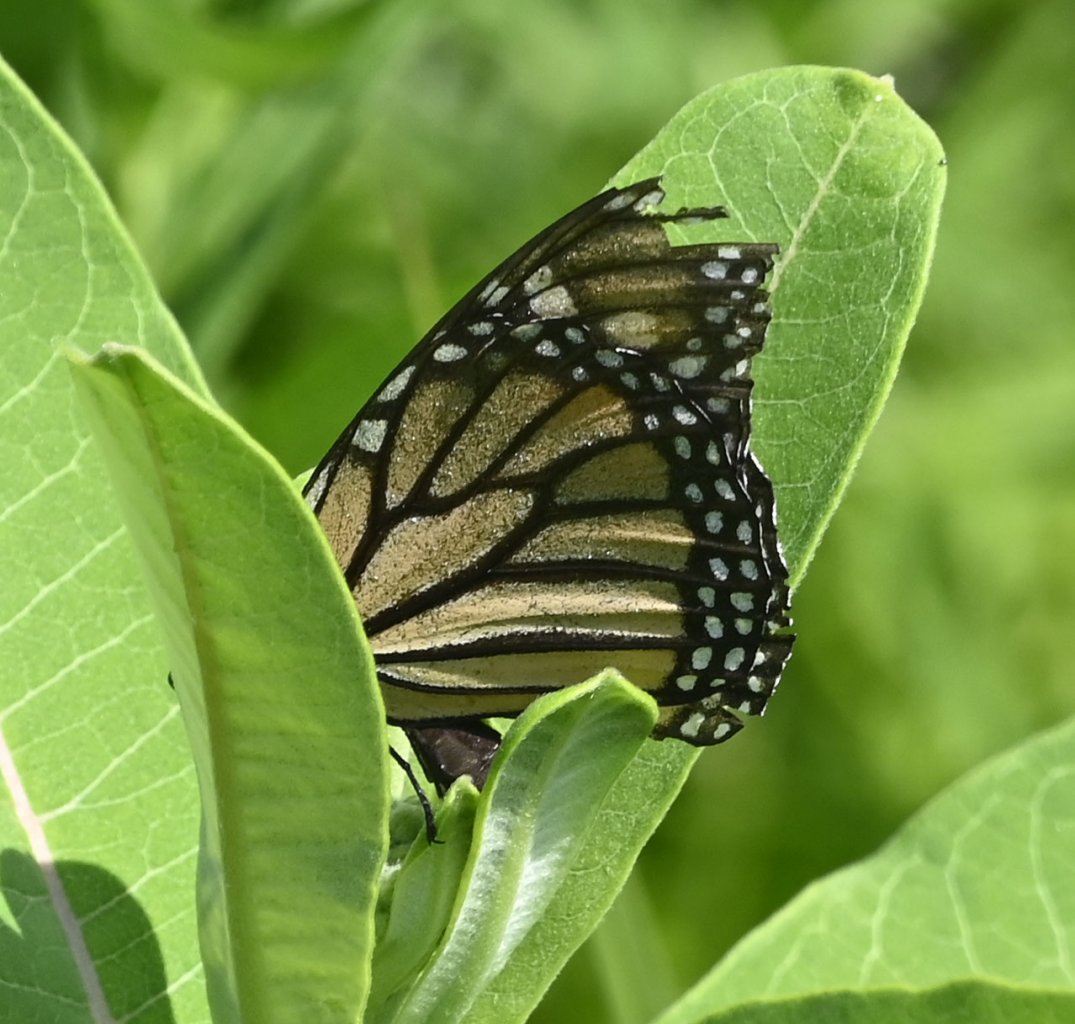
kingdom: Animalia
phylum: Arthropoda
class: Insecta
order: Lepidoptera
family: Nymphalidae
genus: Danaus
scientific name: Danaus plexippus
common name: Monarch
